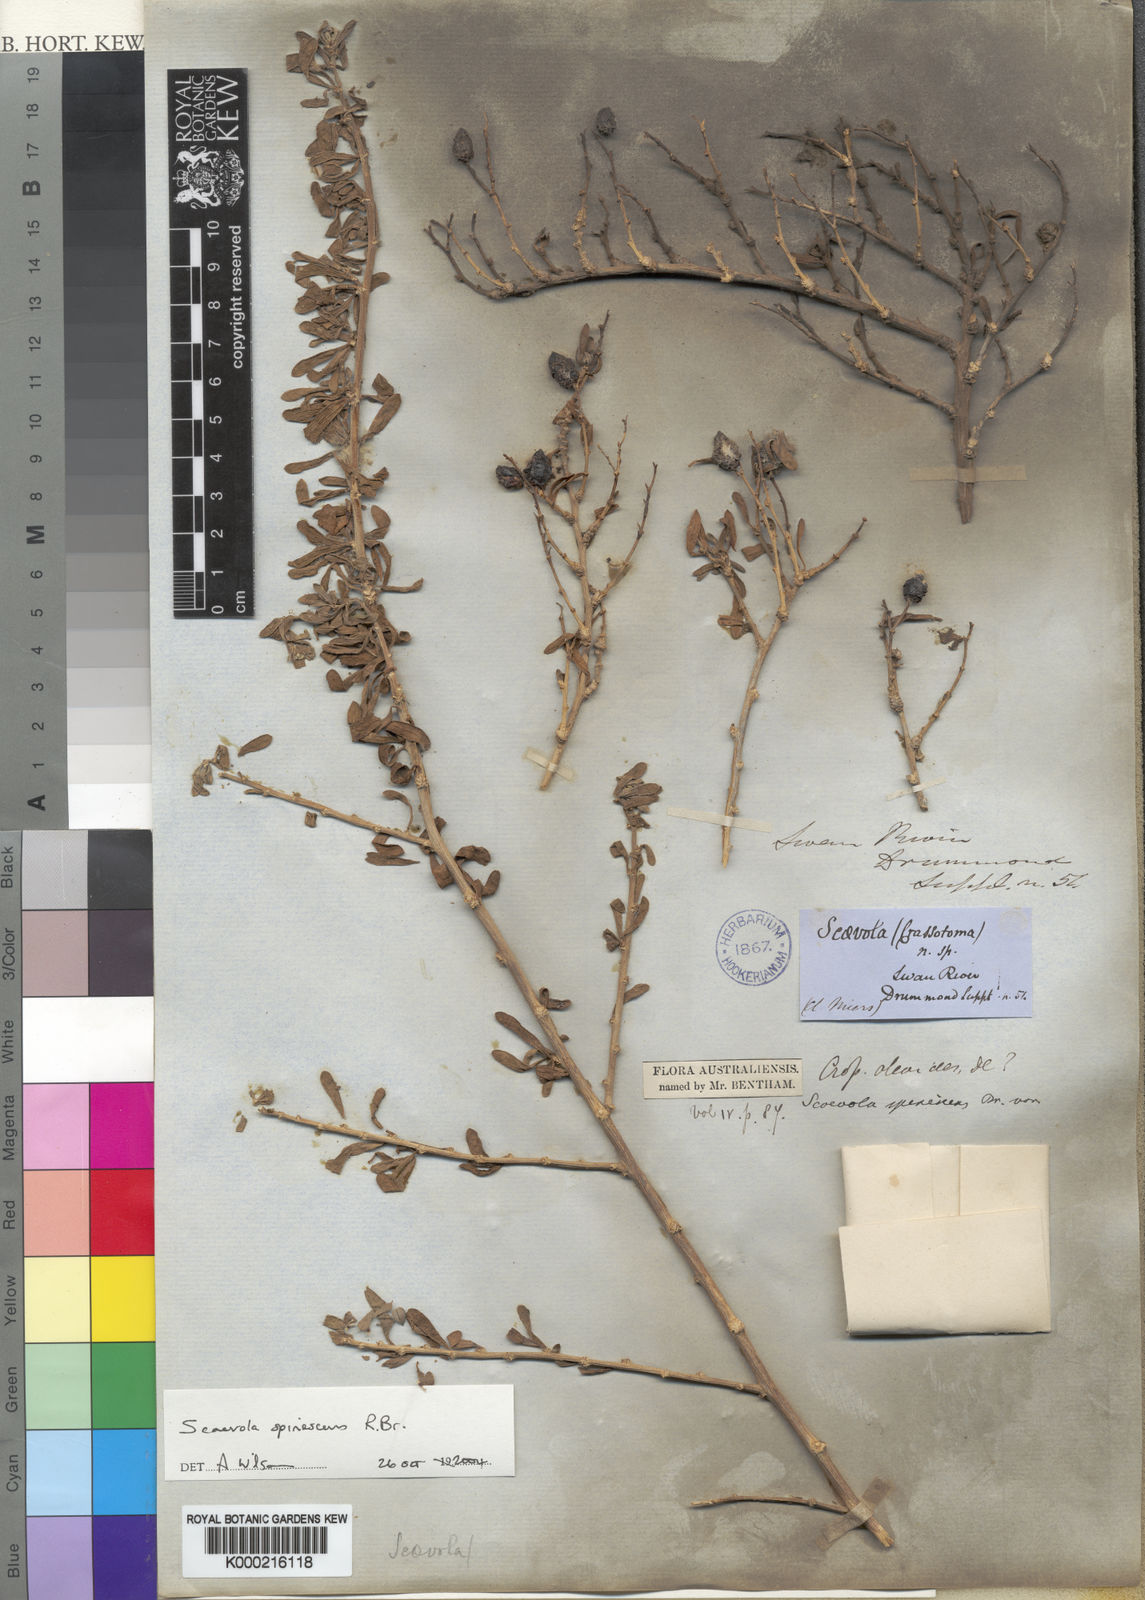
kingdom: Plantae
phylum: Tracheophyta
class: Magnoliopsida
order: Asterales
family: Goodeniaceae
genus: Scaevola
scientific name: Scaevola spinescens
